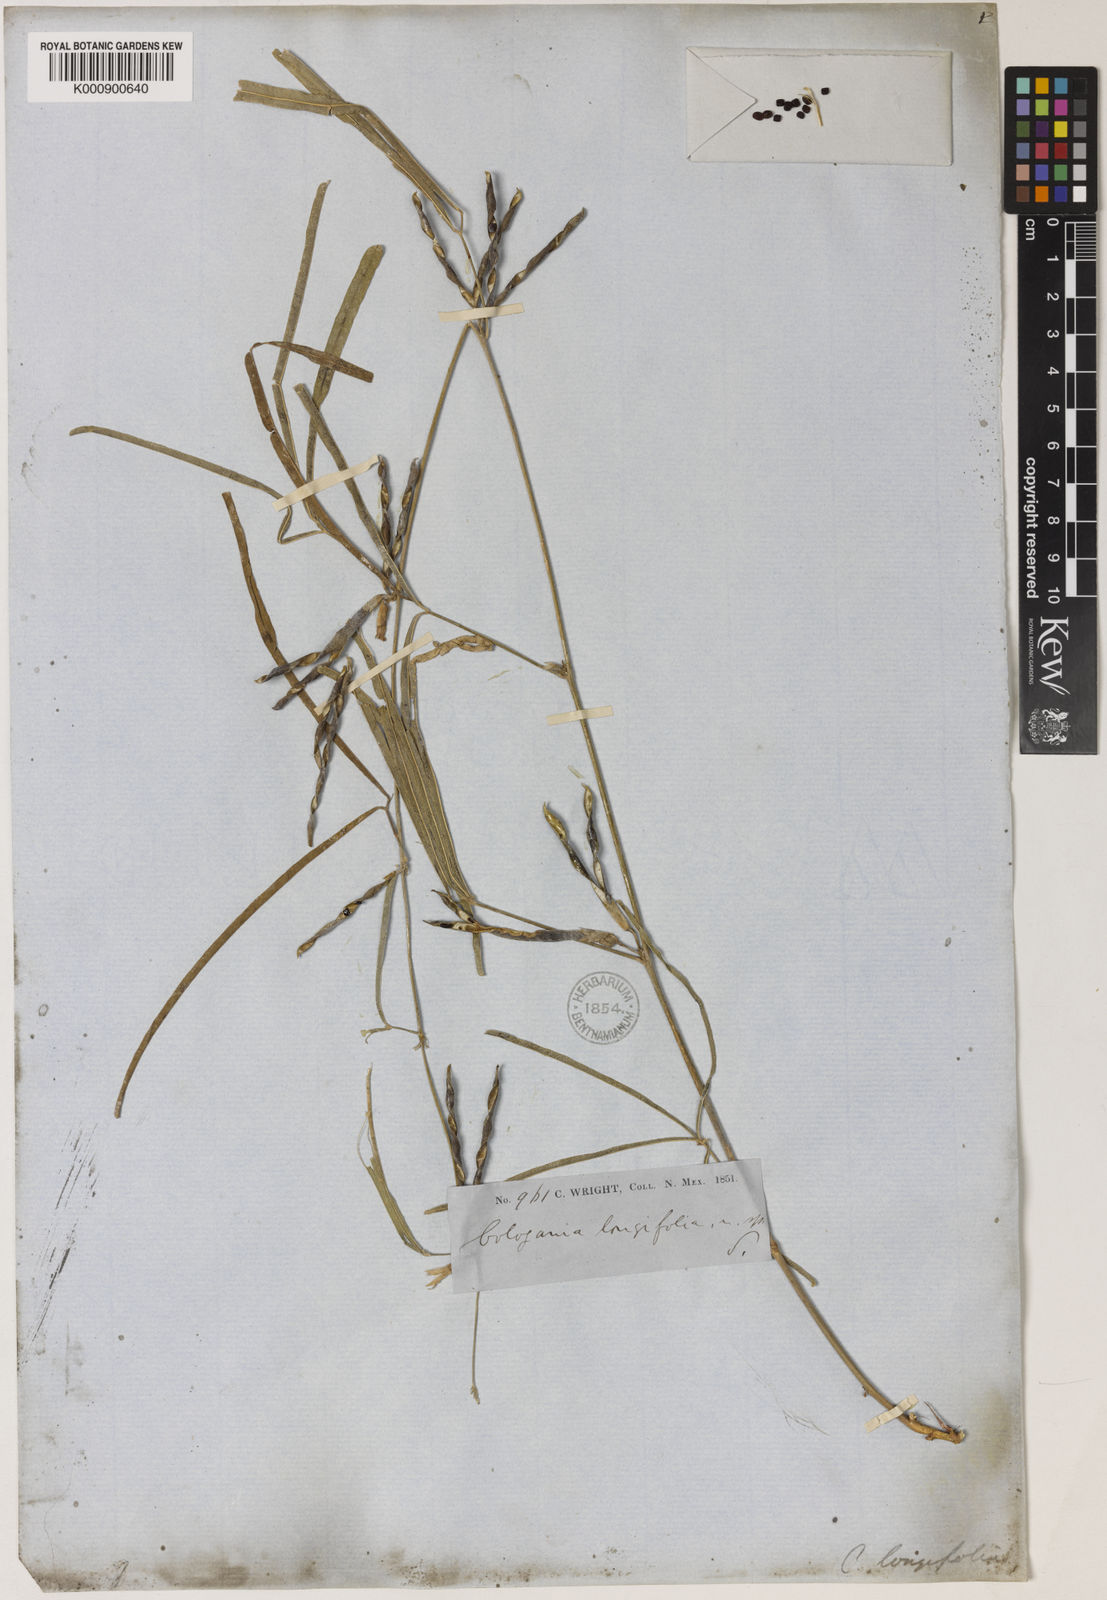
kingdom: Plantae
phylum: Tracheophyta
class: Magnoliopsida
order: Fabales
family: Fabaceae
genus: Cologania
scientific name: Cologania angustifolia
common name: Longleaf cologania
